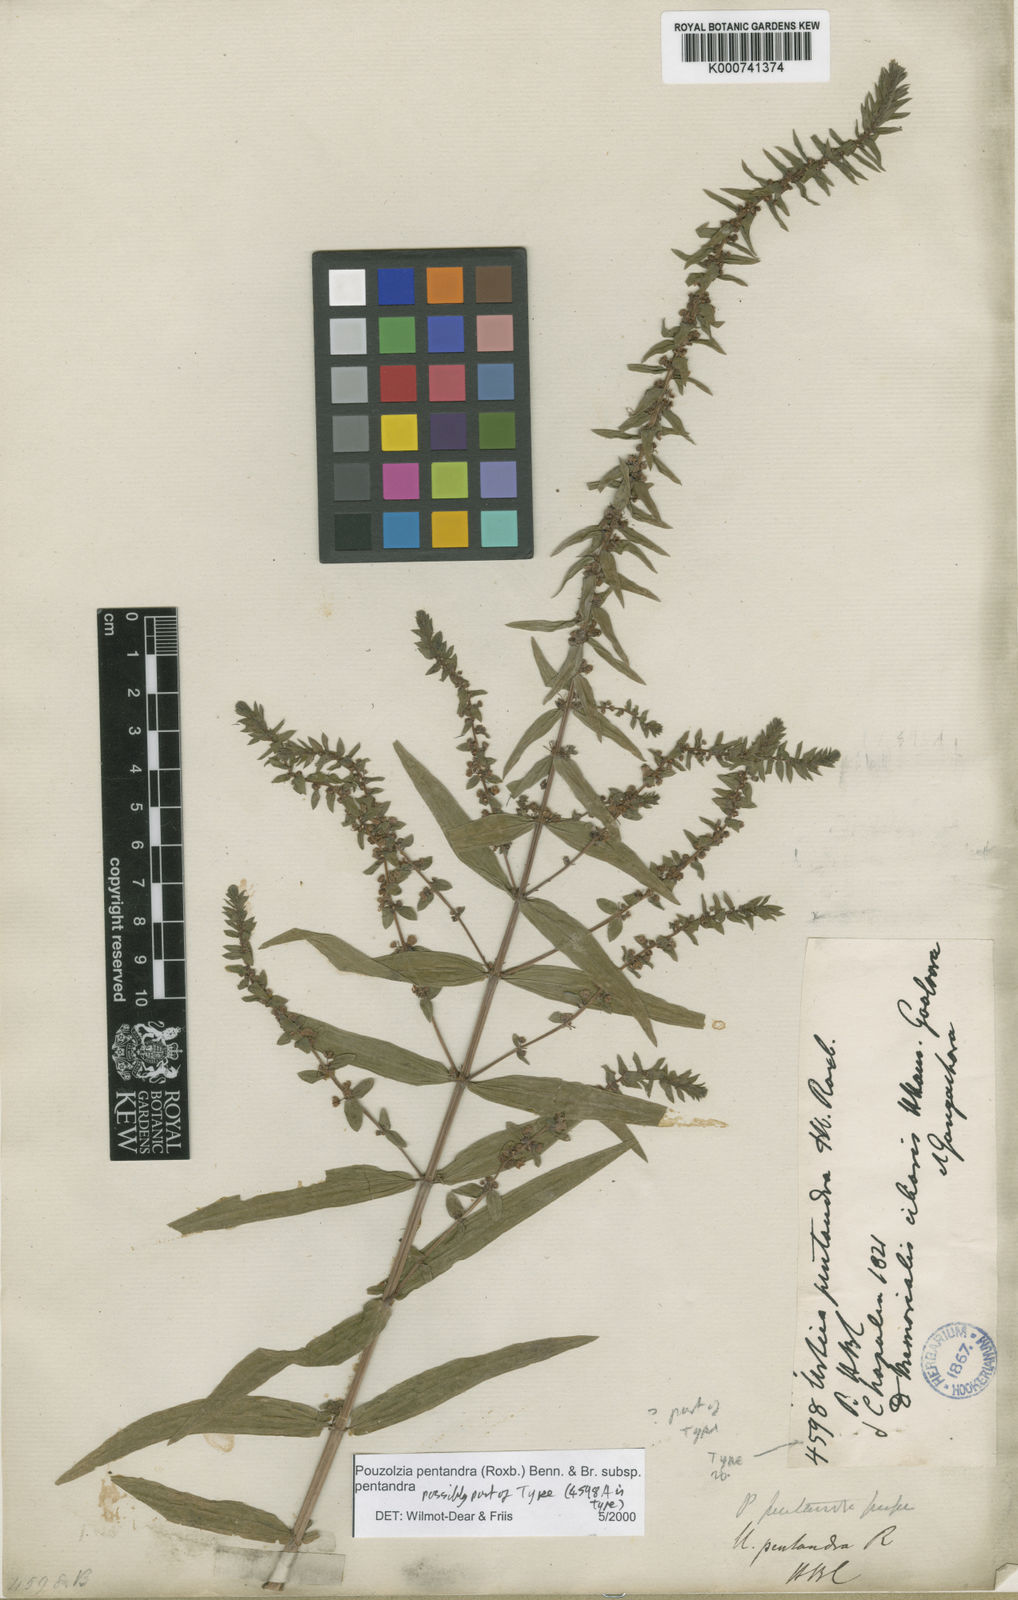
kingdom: Plantae
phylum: Tracheophyta
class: Magnoliopsida
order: Rosales
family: Urticaceae
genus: Gonostegia
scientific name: Gonostegia pentandra
